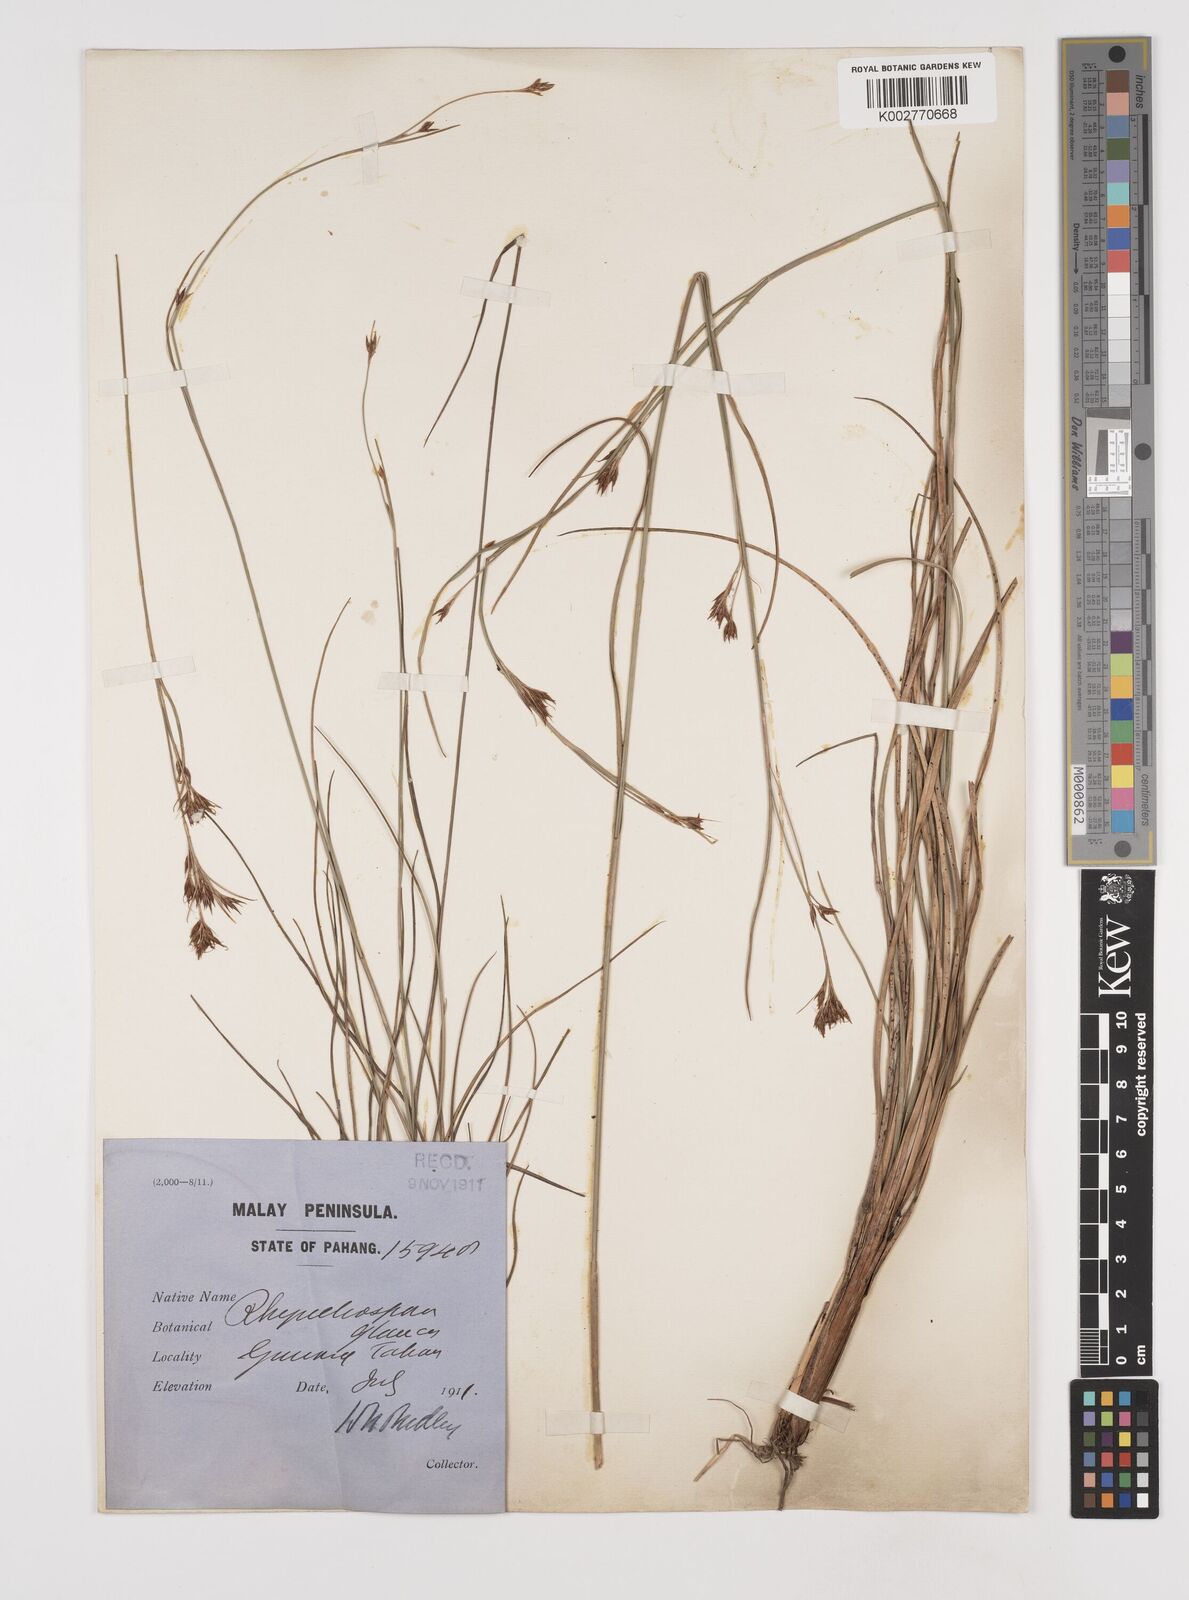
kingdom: Plantae
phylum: Tracheophyta
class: Liliopsida
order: Poales
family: Cyperaceae
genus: Rhynchospora
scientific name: Rhynchospora rugosa
